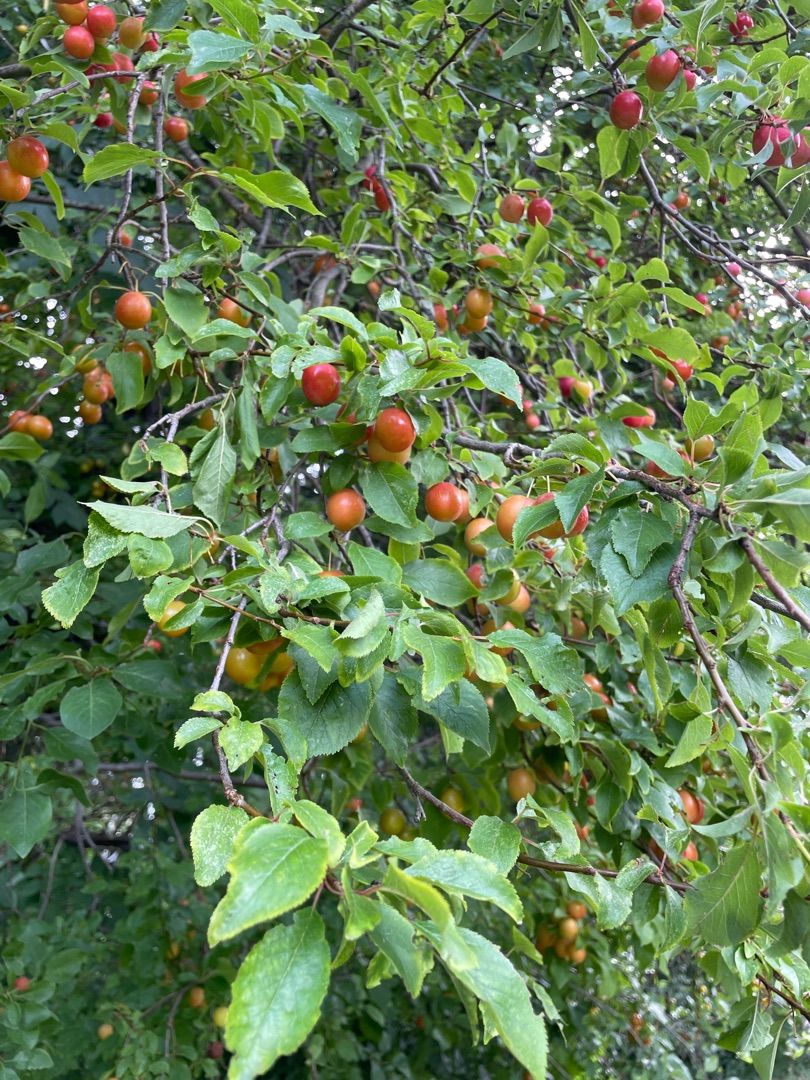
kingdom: Plantae
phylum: Tracheophyta
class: Magnoliopsida
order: Rosales
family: Rosaceae
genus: Prunus
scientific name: Prunus cerasifera
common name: Mirabel
